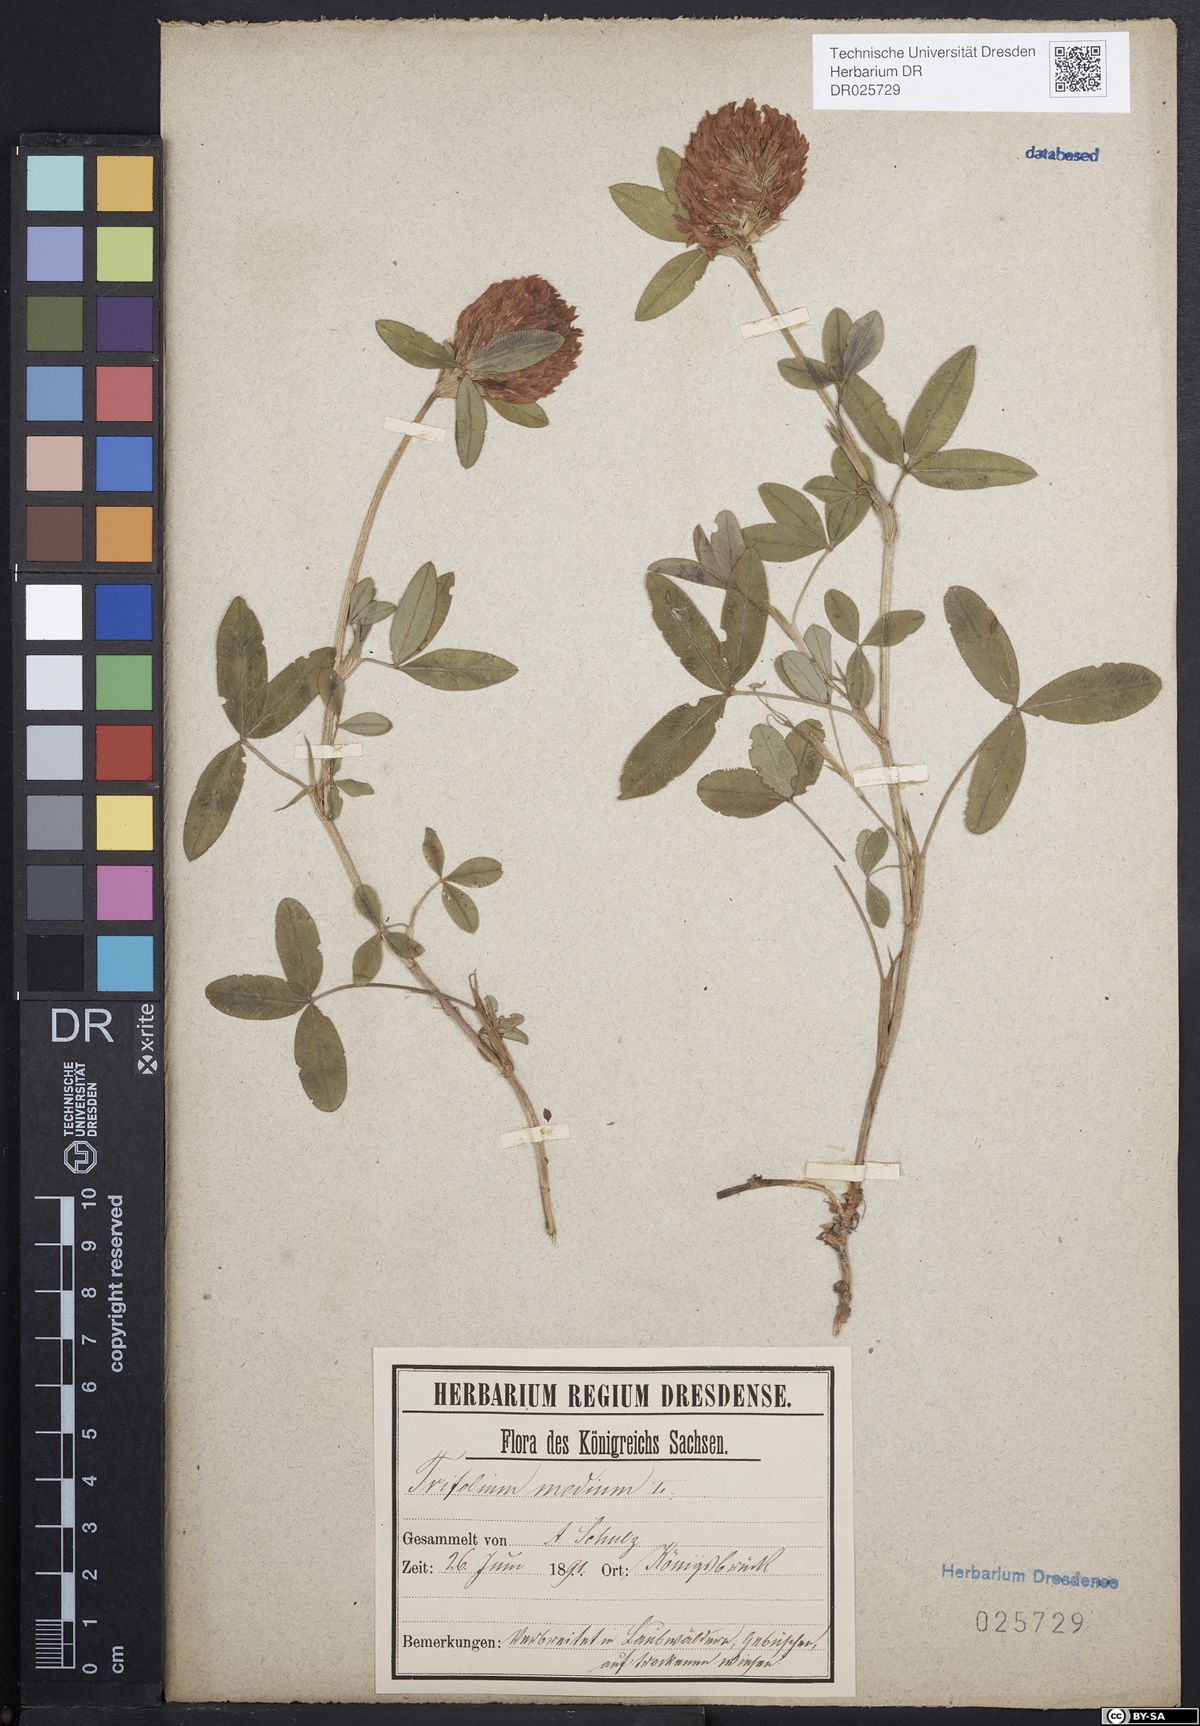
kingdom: Plantae
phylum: Tracheophyta
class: Magnoliopsida
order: Fabales
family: Fabaceae
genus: Trifolium
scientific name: Trifolium medium
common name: Zigzag clover
